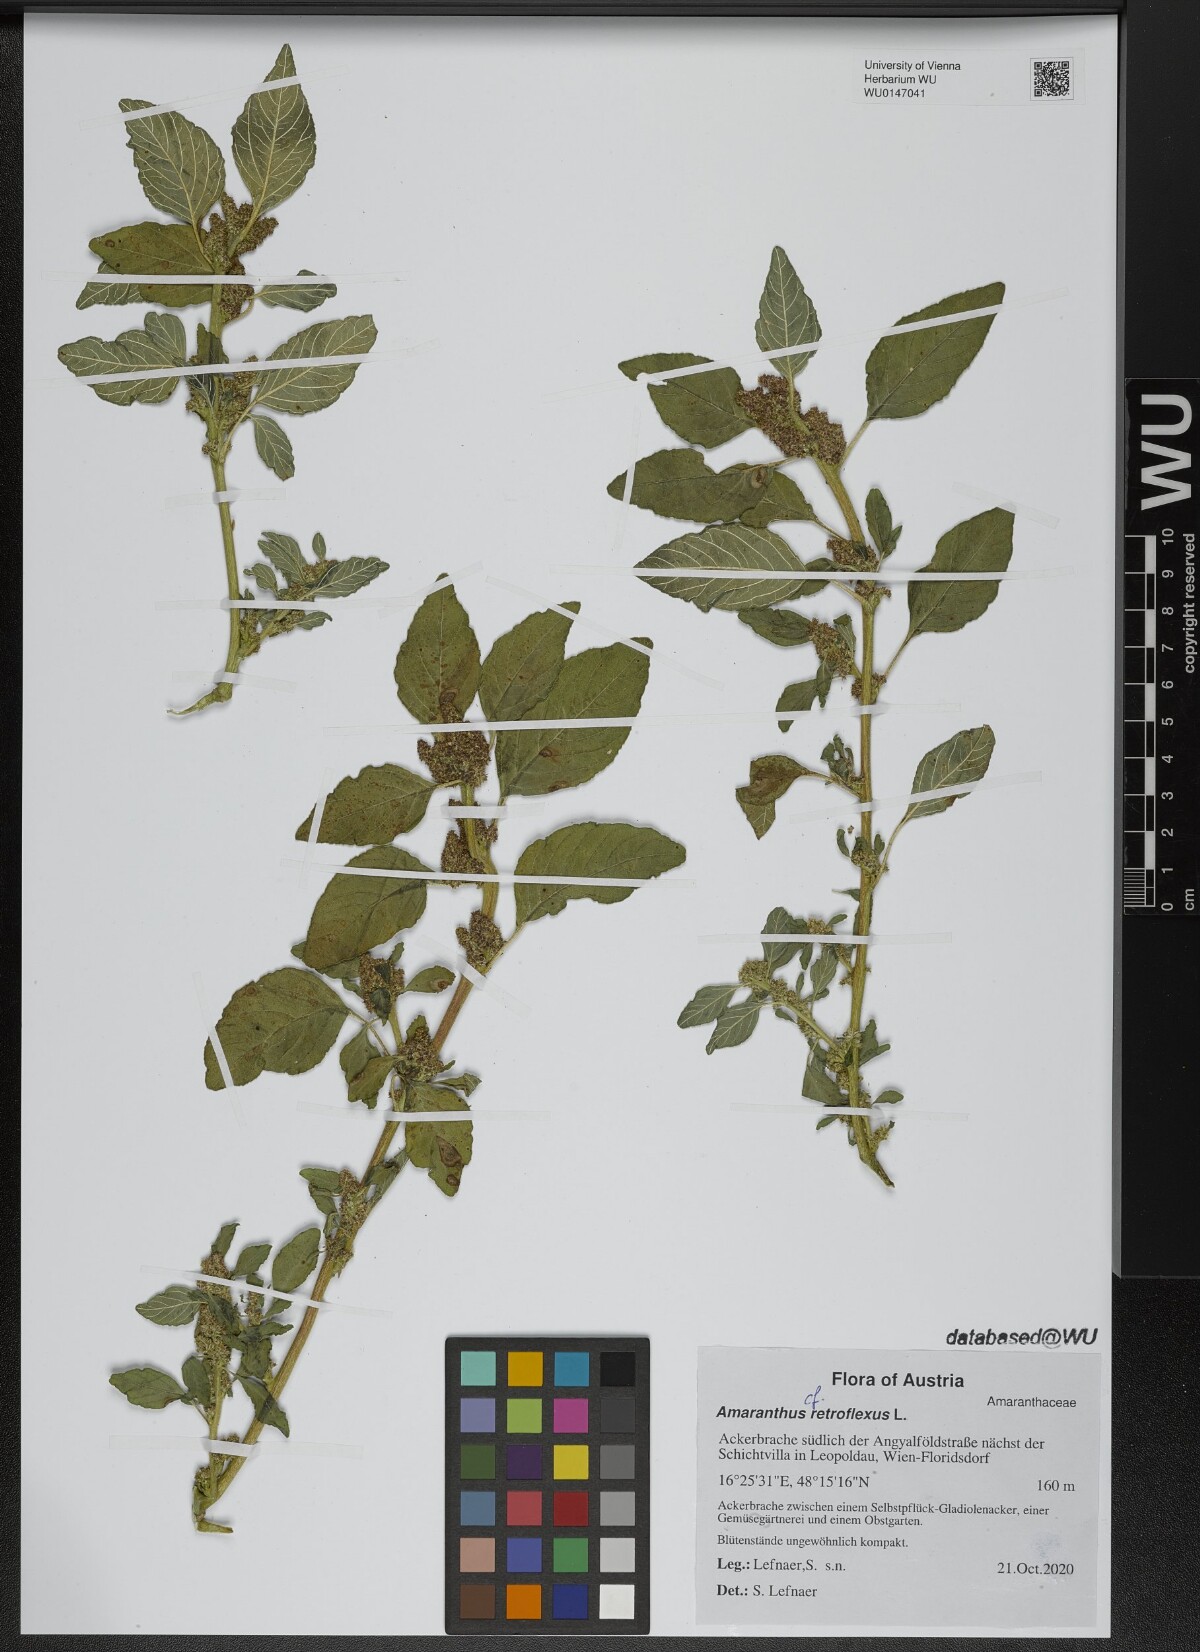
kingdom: Plantae
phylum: Tracheophyta
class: Magnoliopsida
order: Caryophyllales
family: Amaranthaceae
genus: Amaranthus
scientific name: Amaranthus retroflexus
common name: Redroot amaranth
